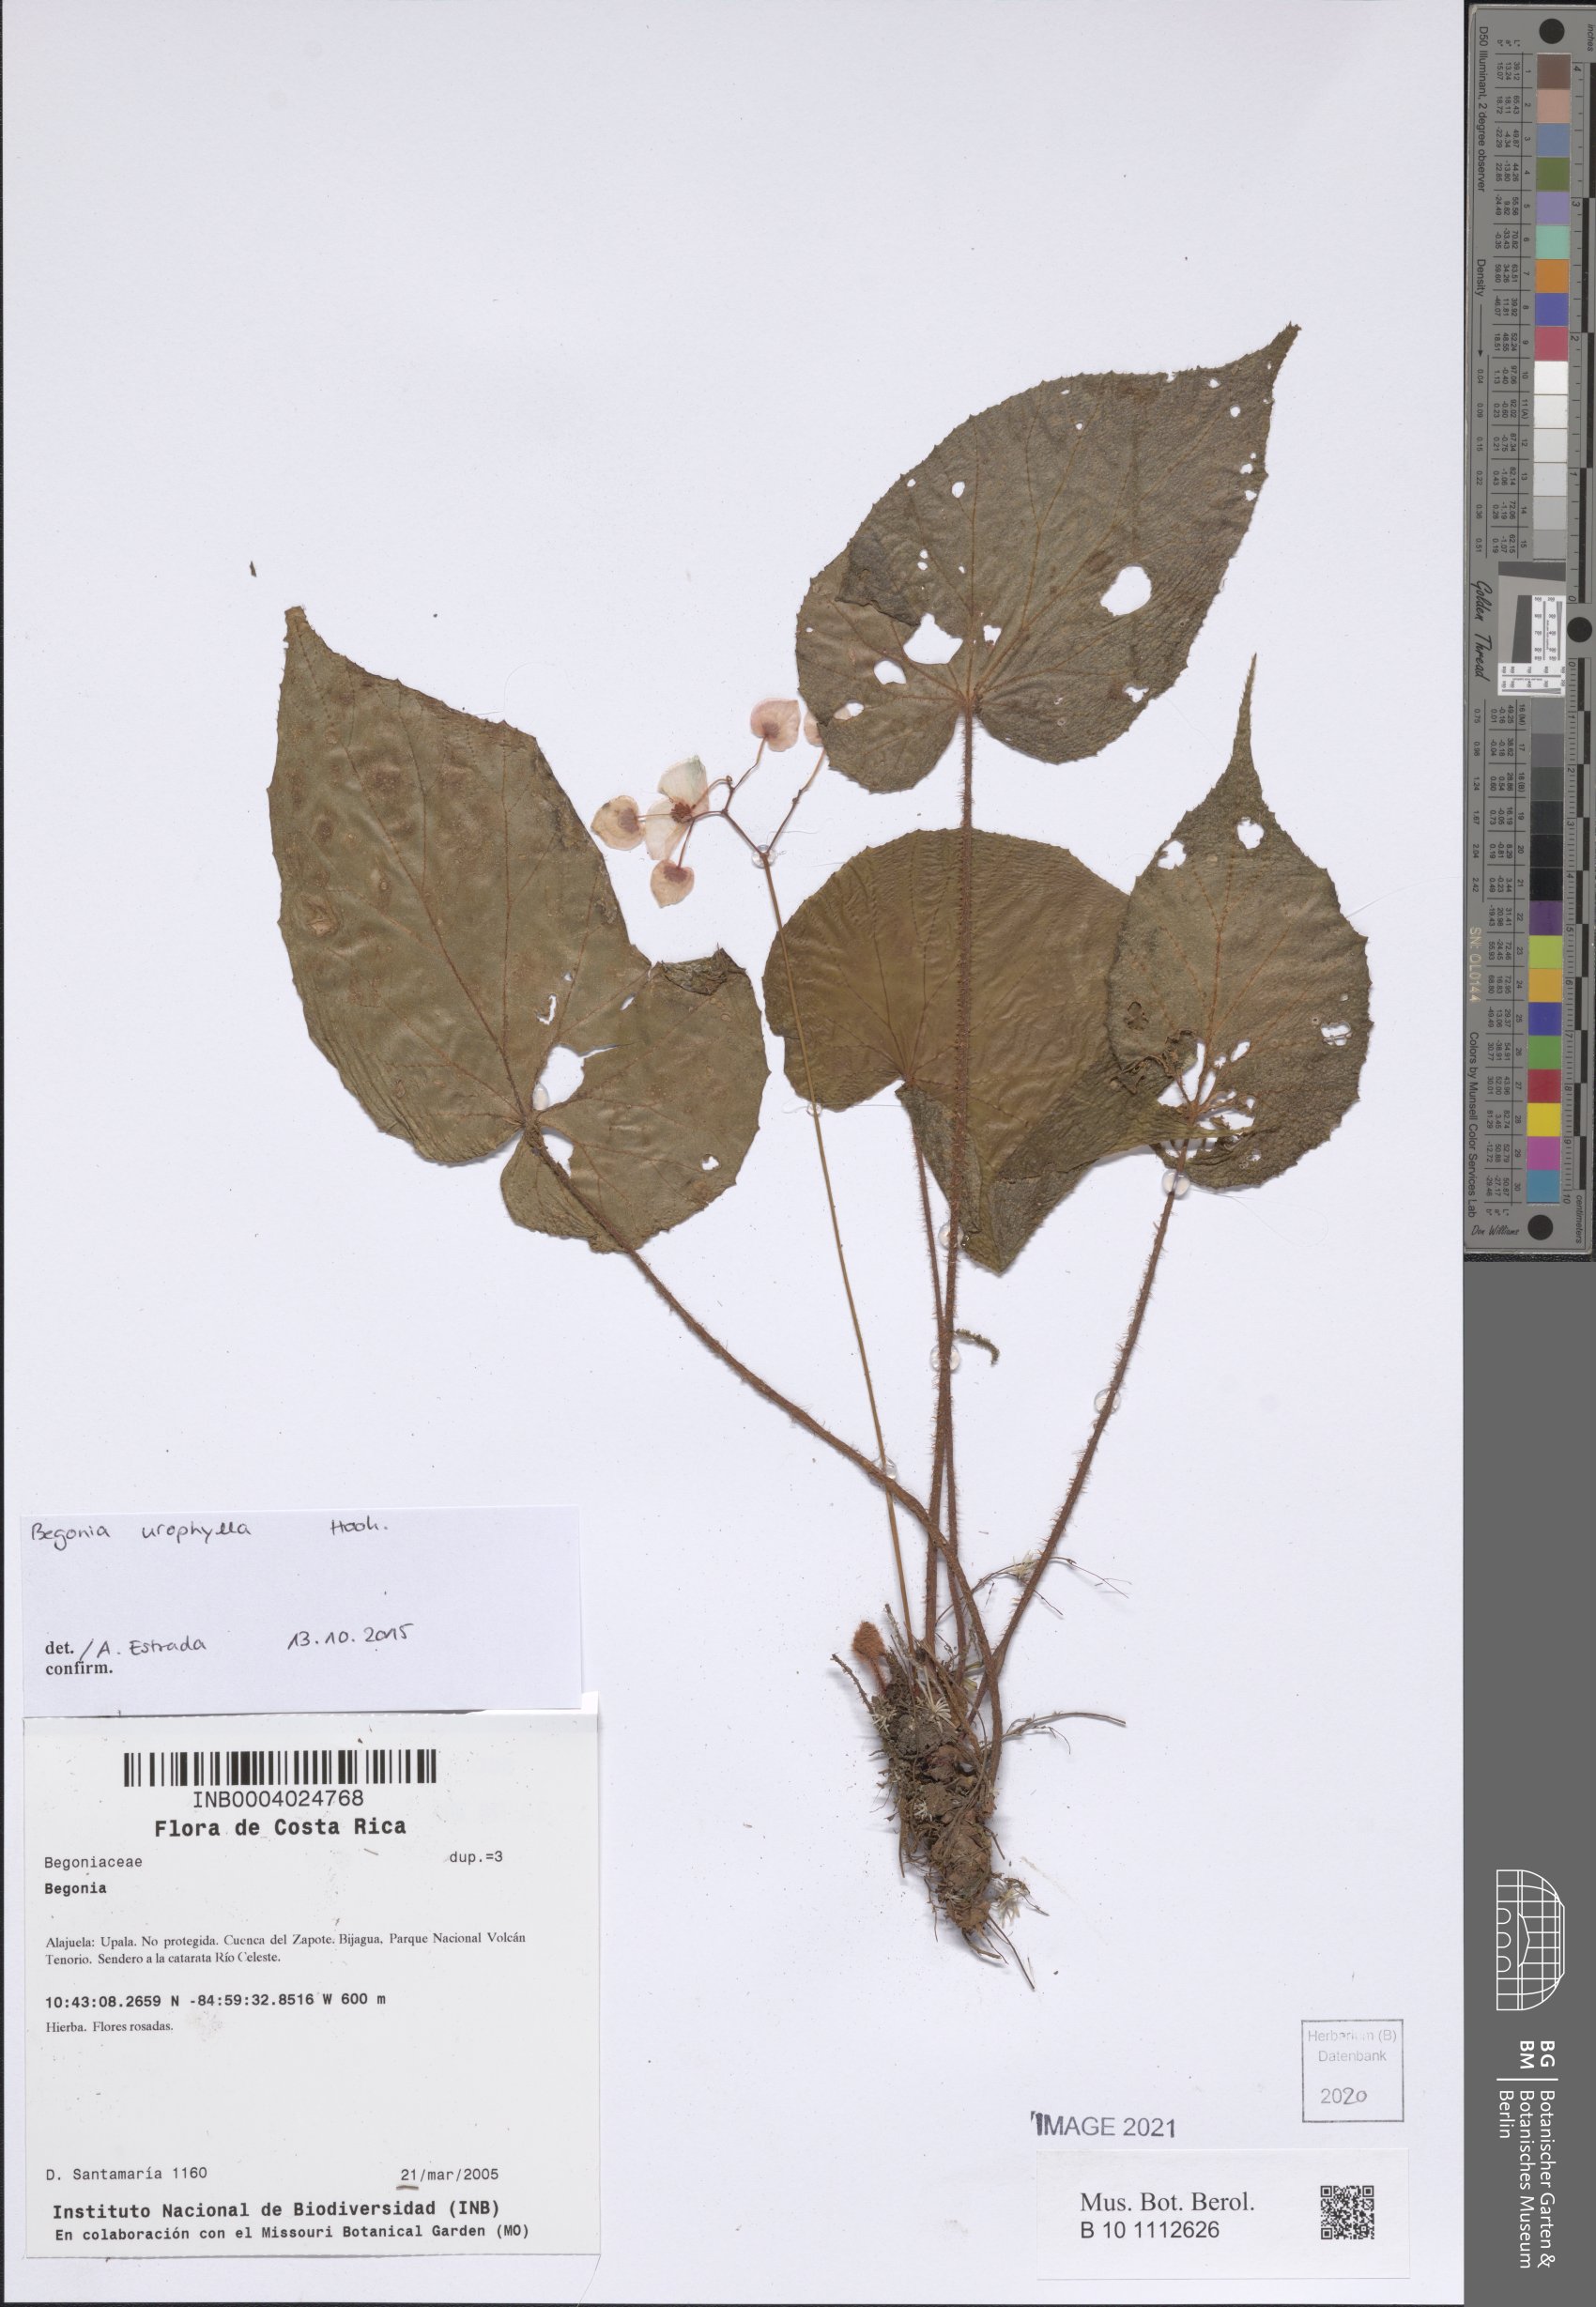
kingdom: Plantae
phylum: Tracheophyta
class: Magnoliopsida
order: Cucurbitales
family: Begoniaceae
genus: Begonia
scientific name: Begonia
